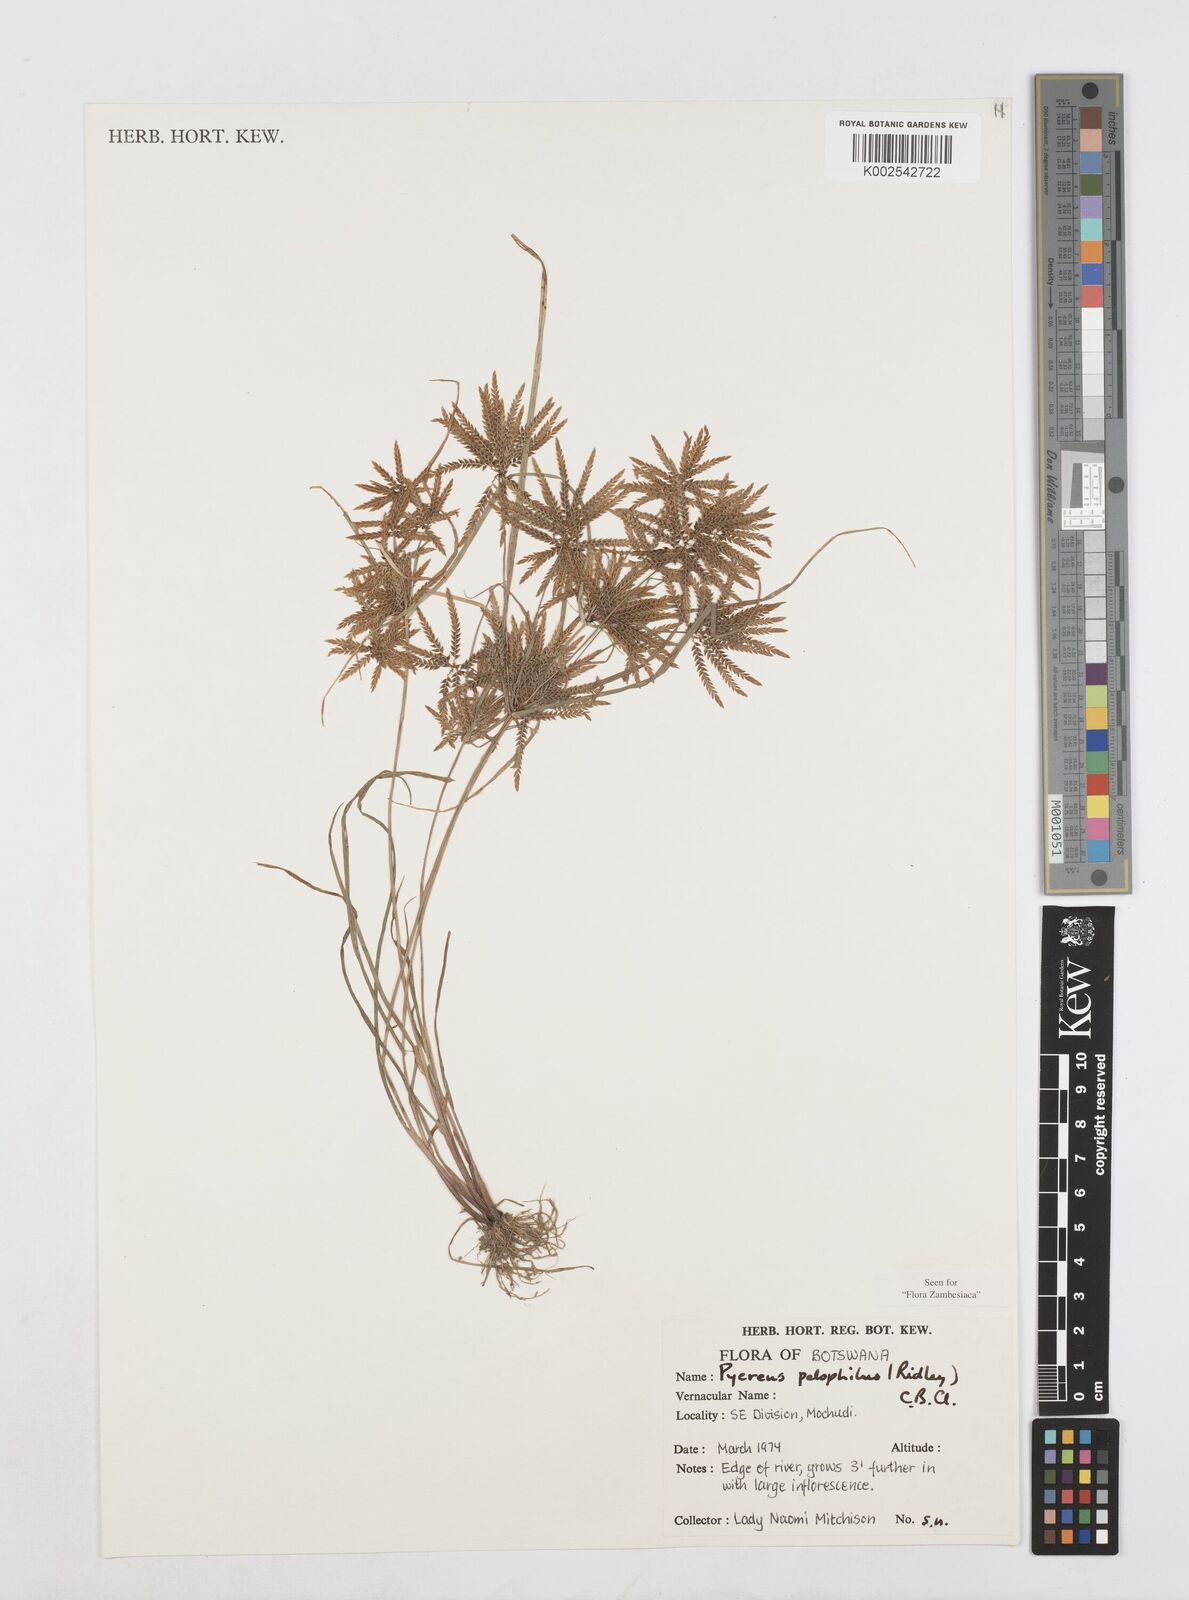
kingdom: Plantae
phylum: Tracheophyta
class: Liliopsida
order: Poales
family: Cyperaceae
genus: Cyperus
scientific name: Cyperus pelophilus
